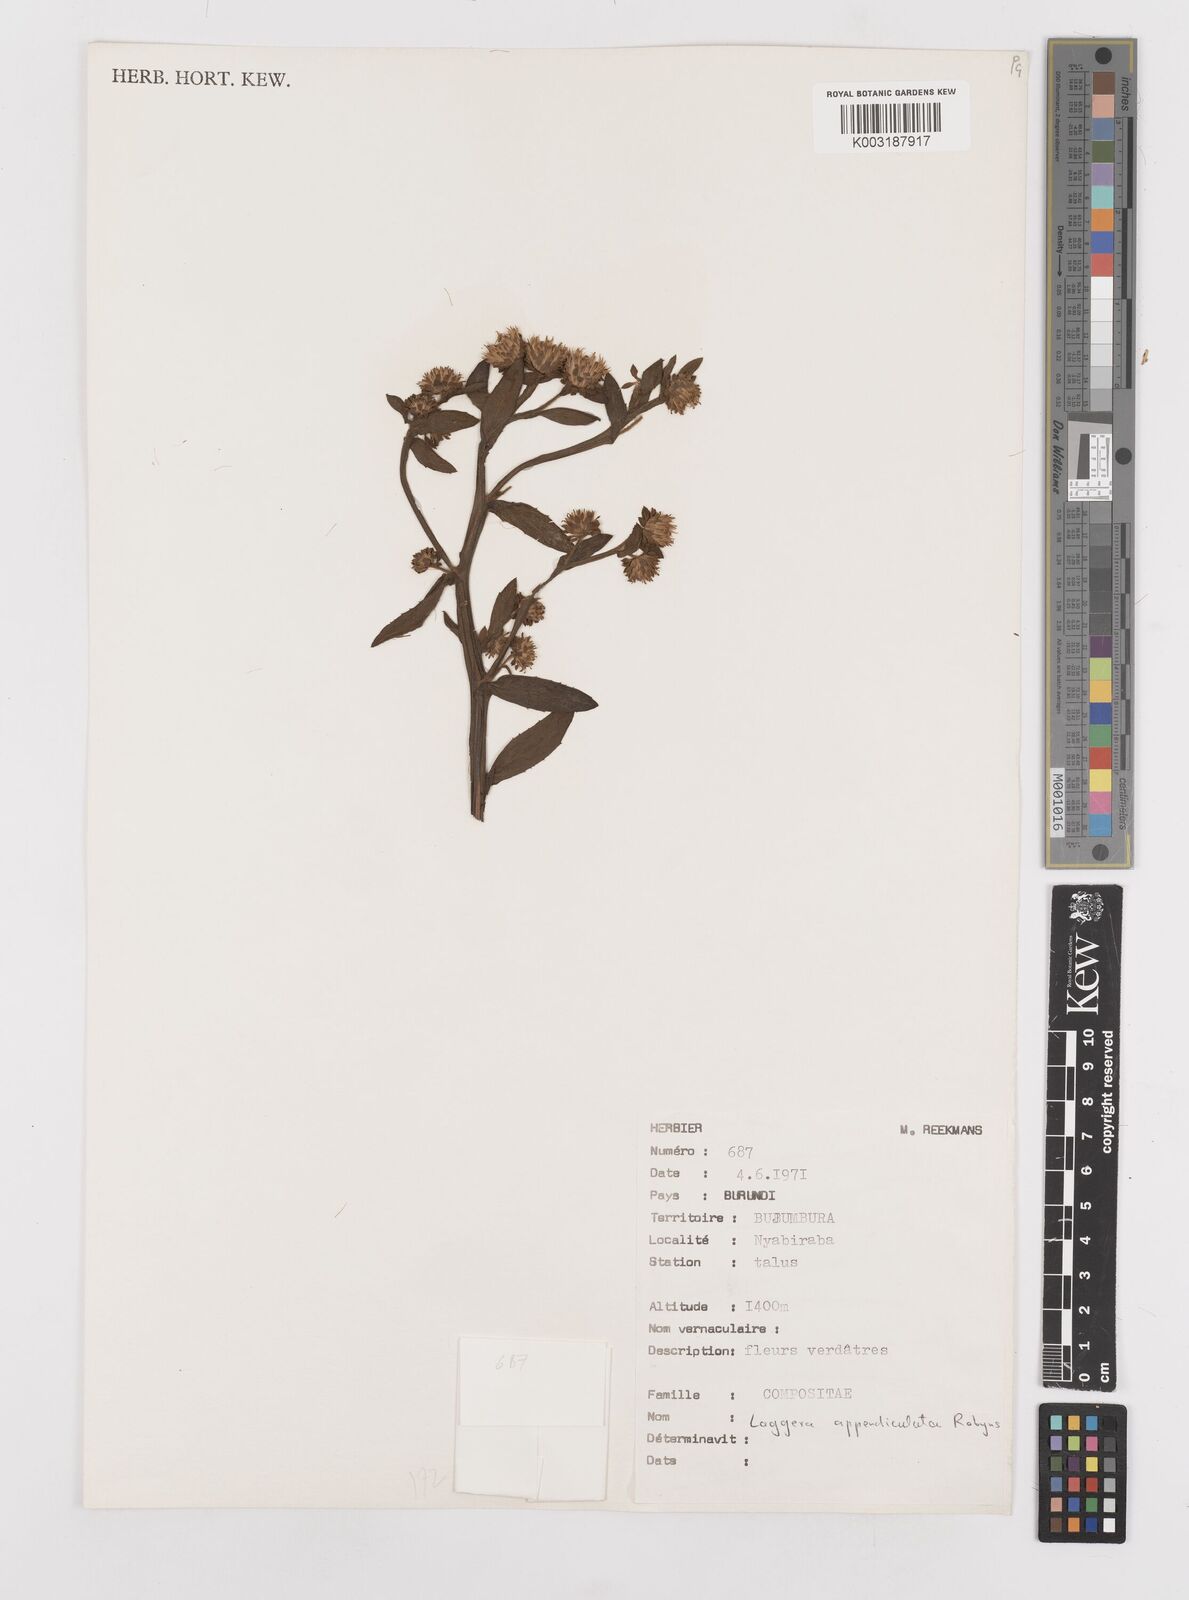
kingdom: Plantae
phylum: Tracheophyta
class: Magnoliopsida
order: Asterales
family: Asteraceae
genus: Laggera
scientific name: Laggera brevipes
